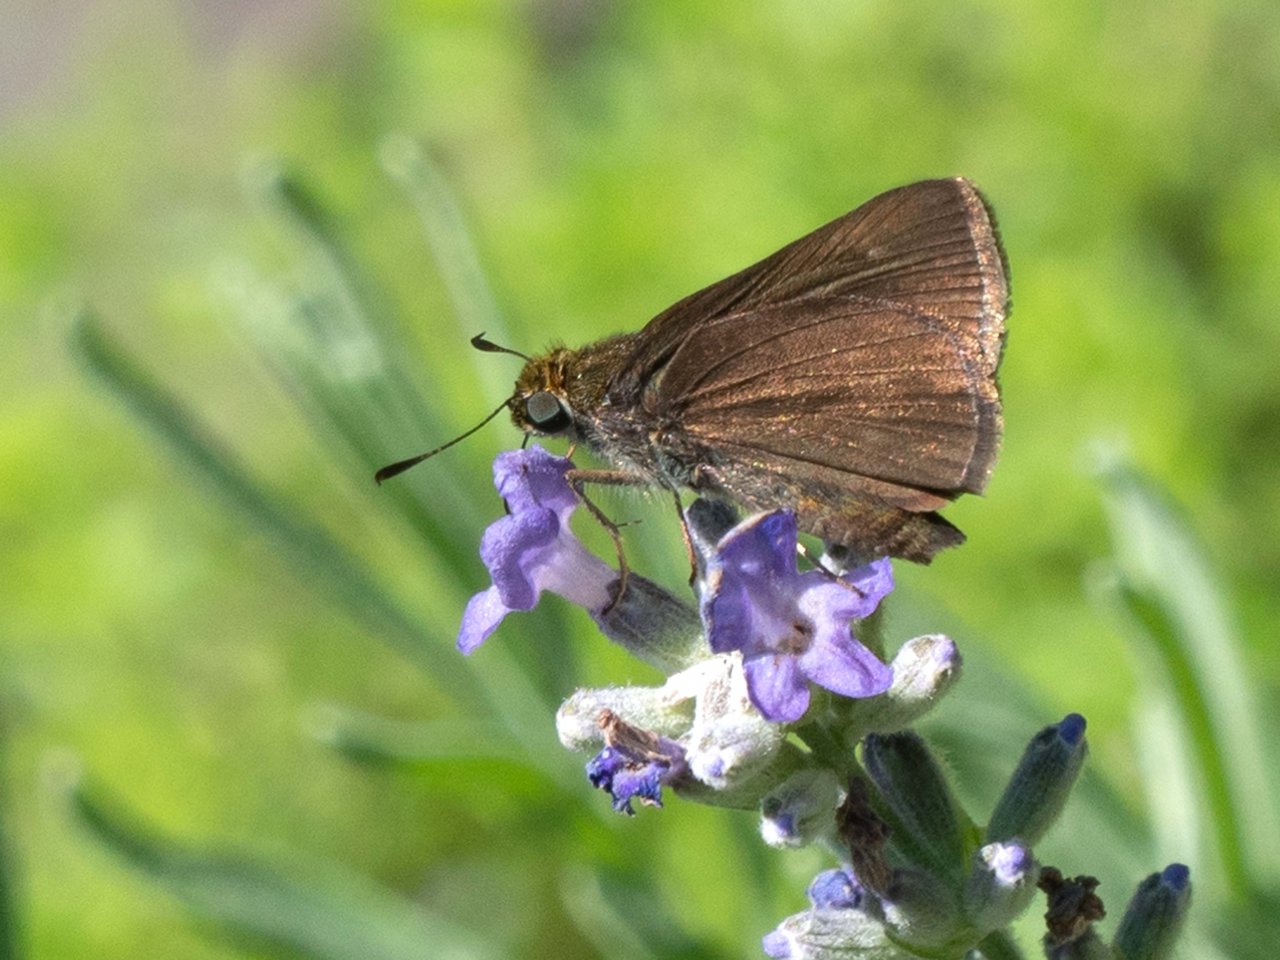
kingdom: Animalia
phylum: Arthropoda
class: Insecta
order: Lepidoptera
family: Hesperiidae
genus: Euphyes
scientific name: Euphyes vestris
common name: Dun Skipper
